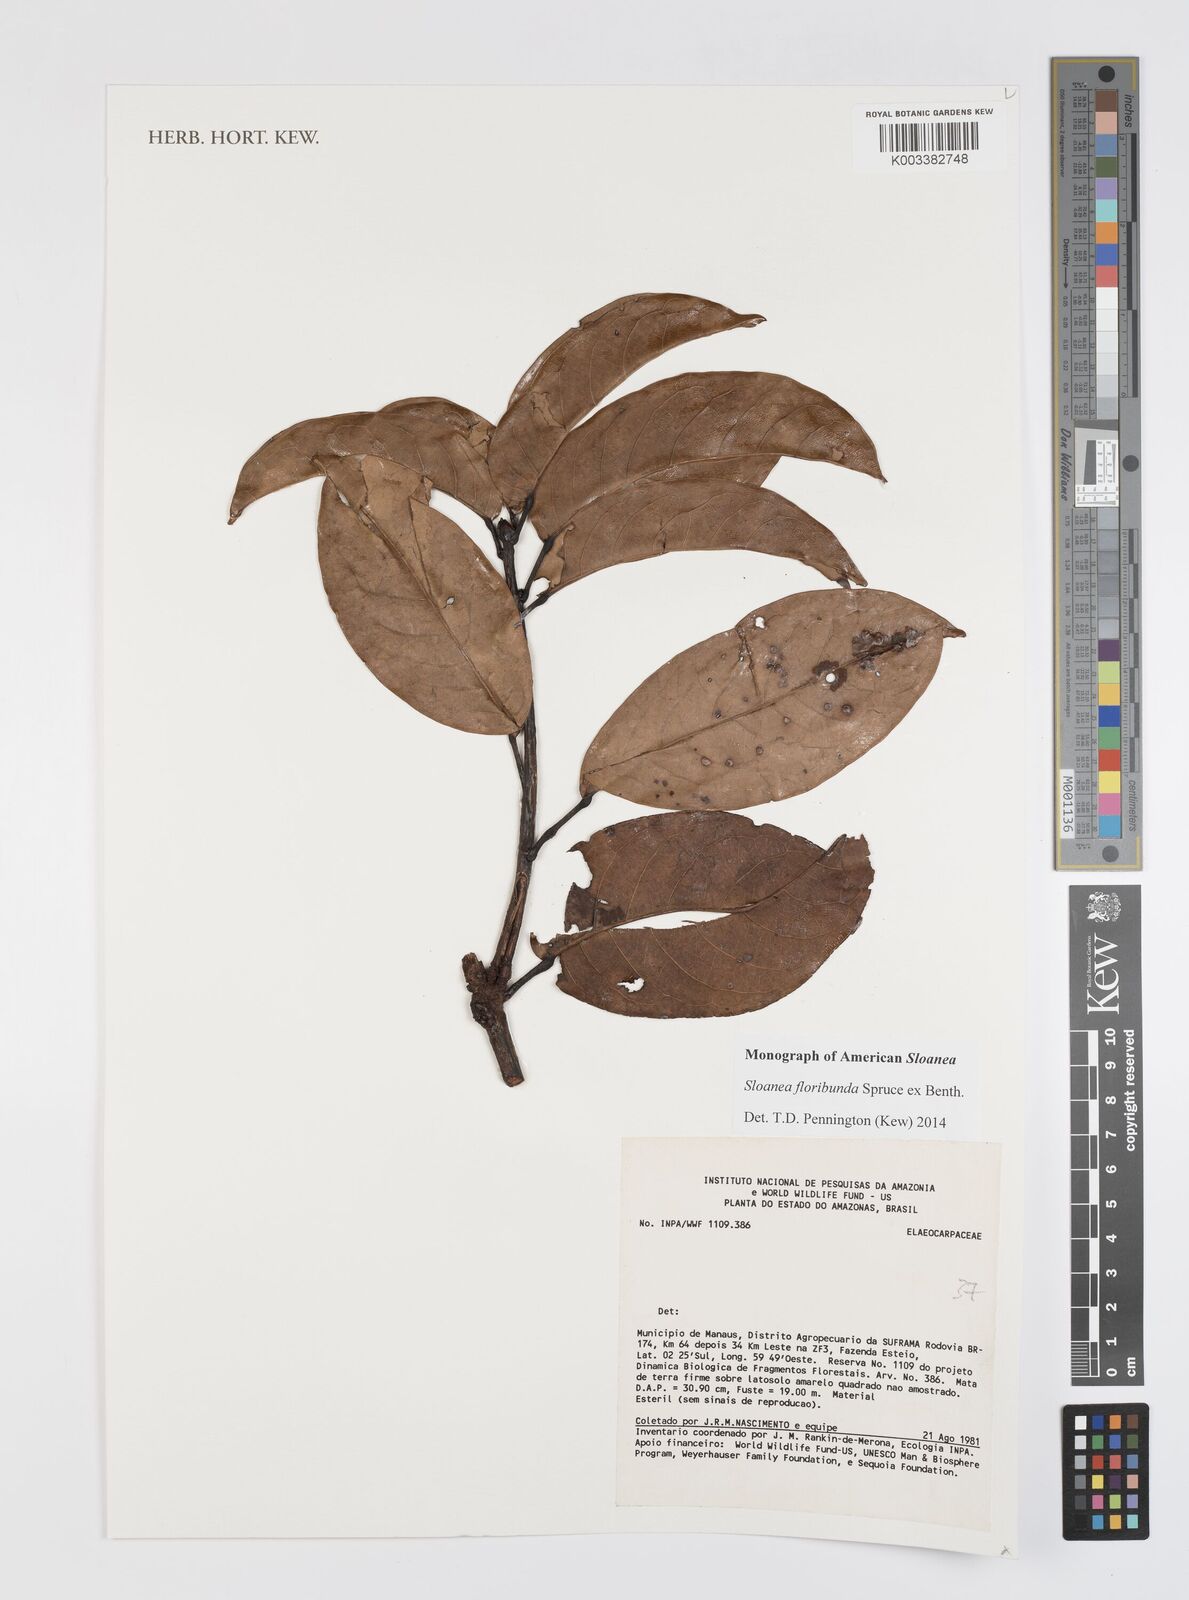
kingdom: Plantae
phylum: Tracheophyta
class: Magnoliopsida
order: Oxalidales
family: Elaeocarpaceae
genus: Sloanea
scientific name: Sloanea floribunda
